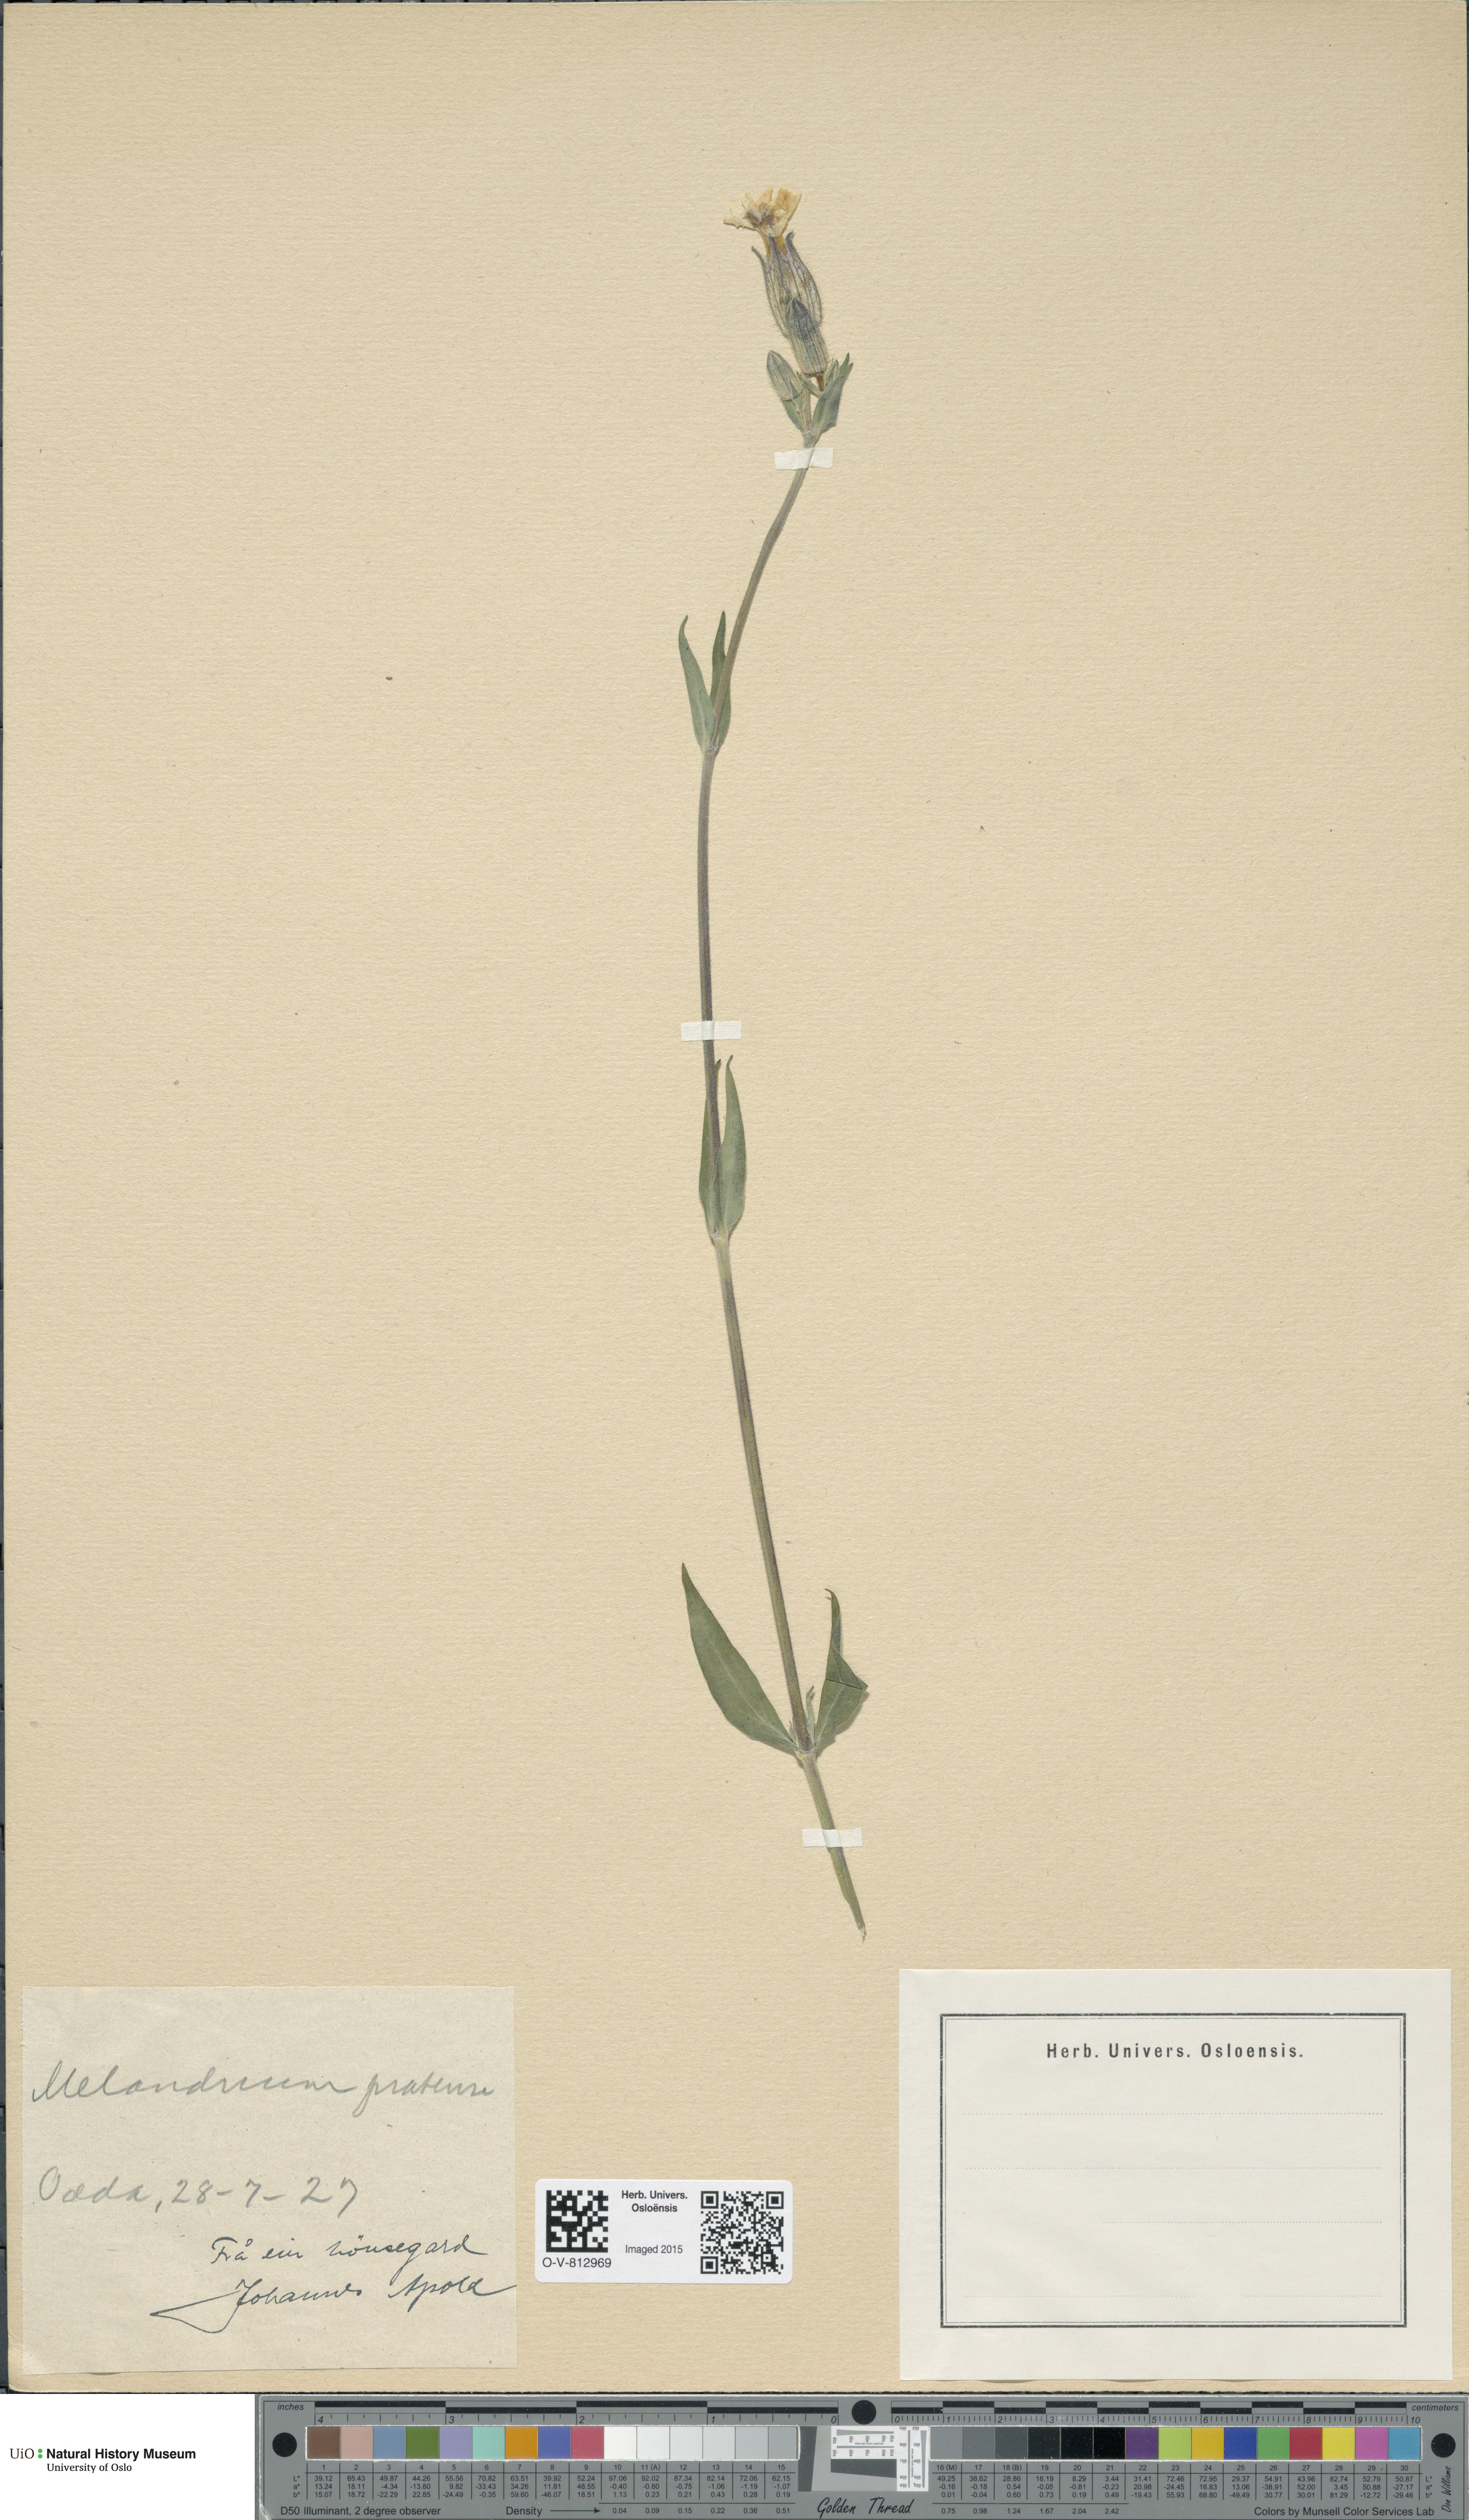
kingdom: Plantae
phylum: Tracheophyta
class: Magnoliopsida
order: Caryophyllales
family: Caryophyllaceae
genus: Silene
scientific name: Silene latifolia
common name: White campion
